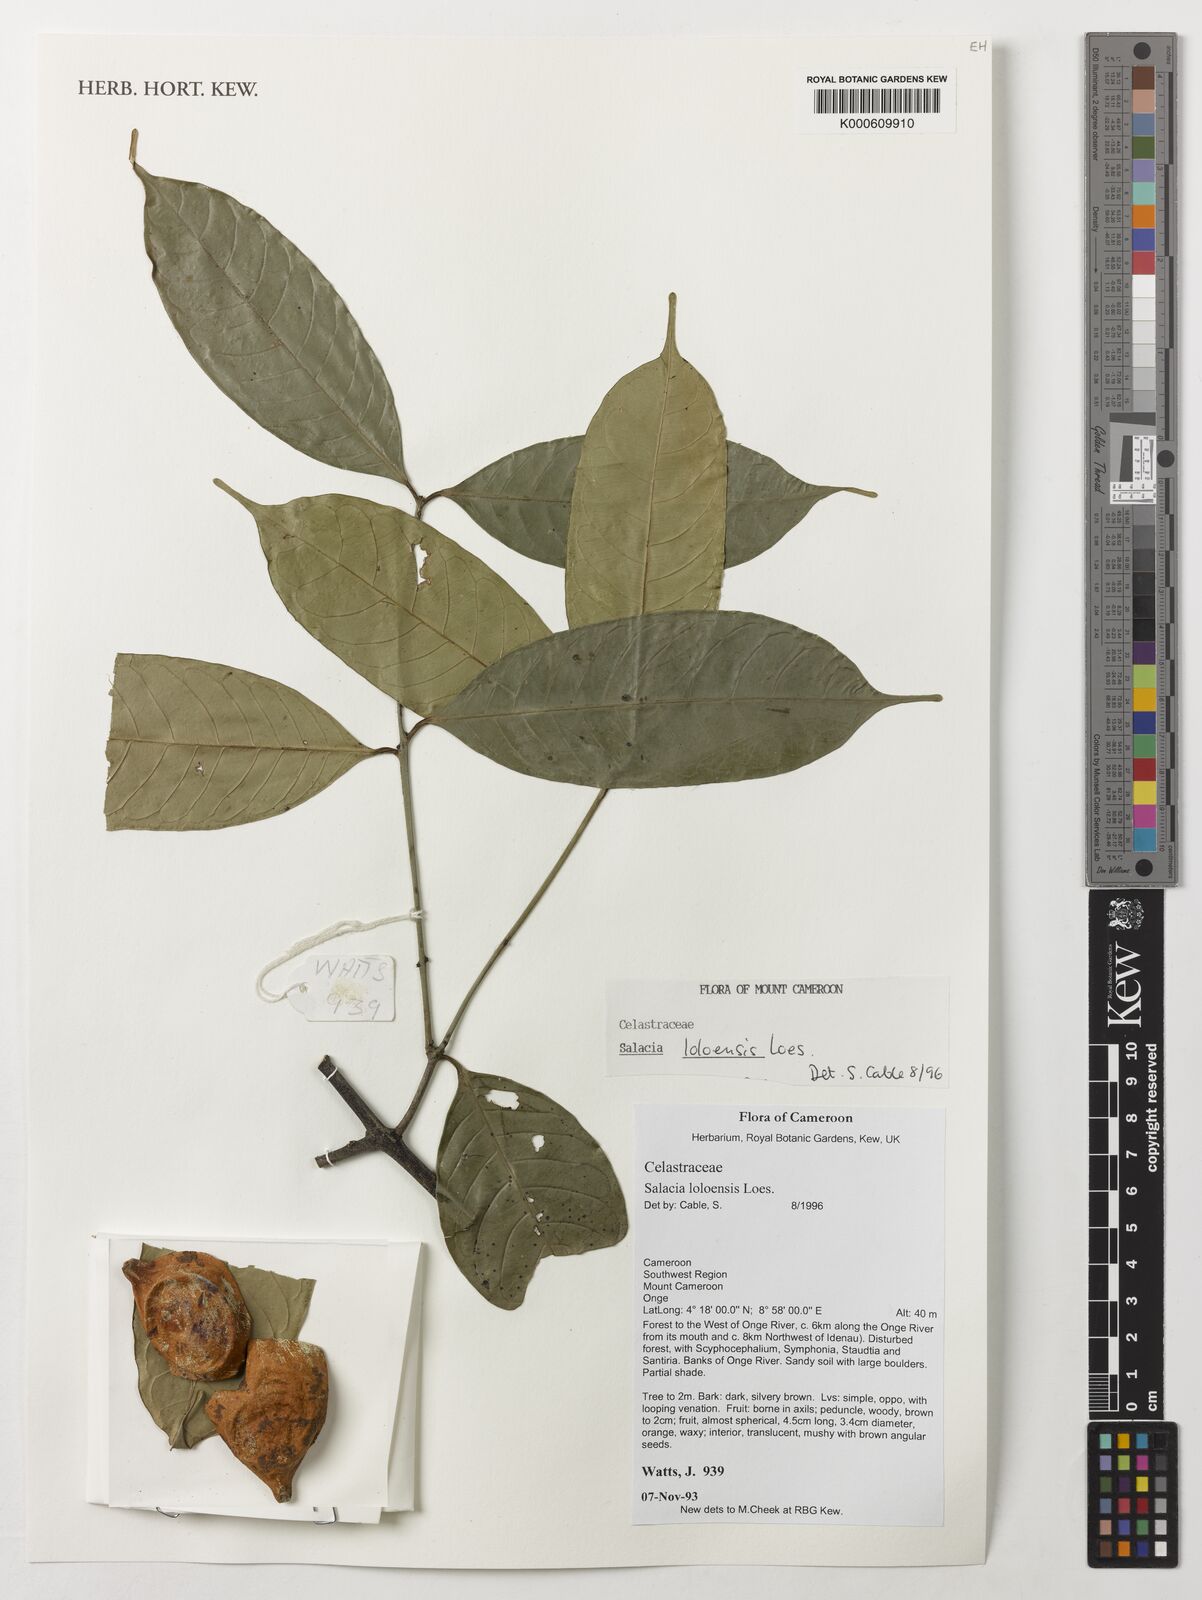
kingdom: Plantae
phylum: Tracheophyta
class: Magnoliopsida
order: Celastrales
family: Celastraceae
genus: Salacia
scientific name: Salacia loloensis
